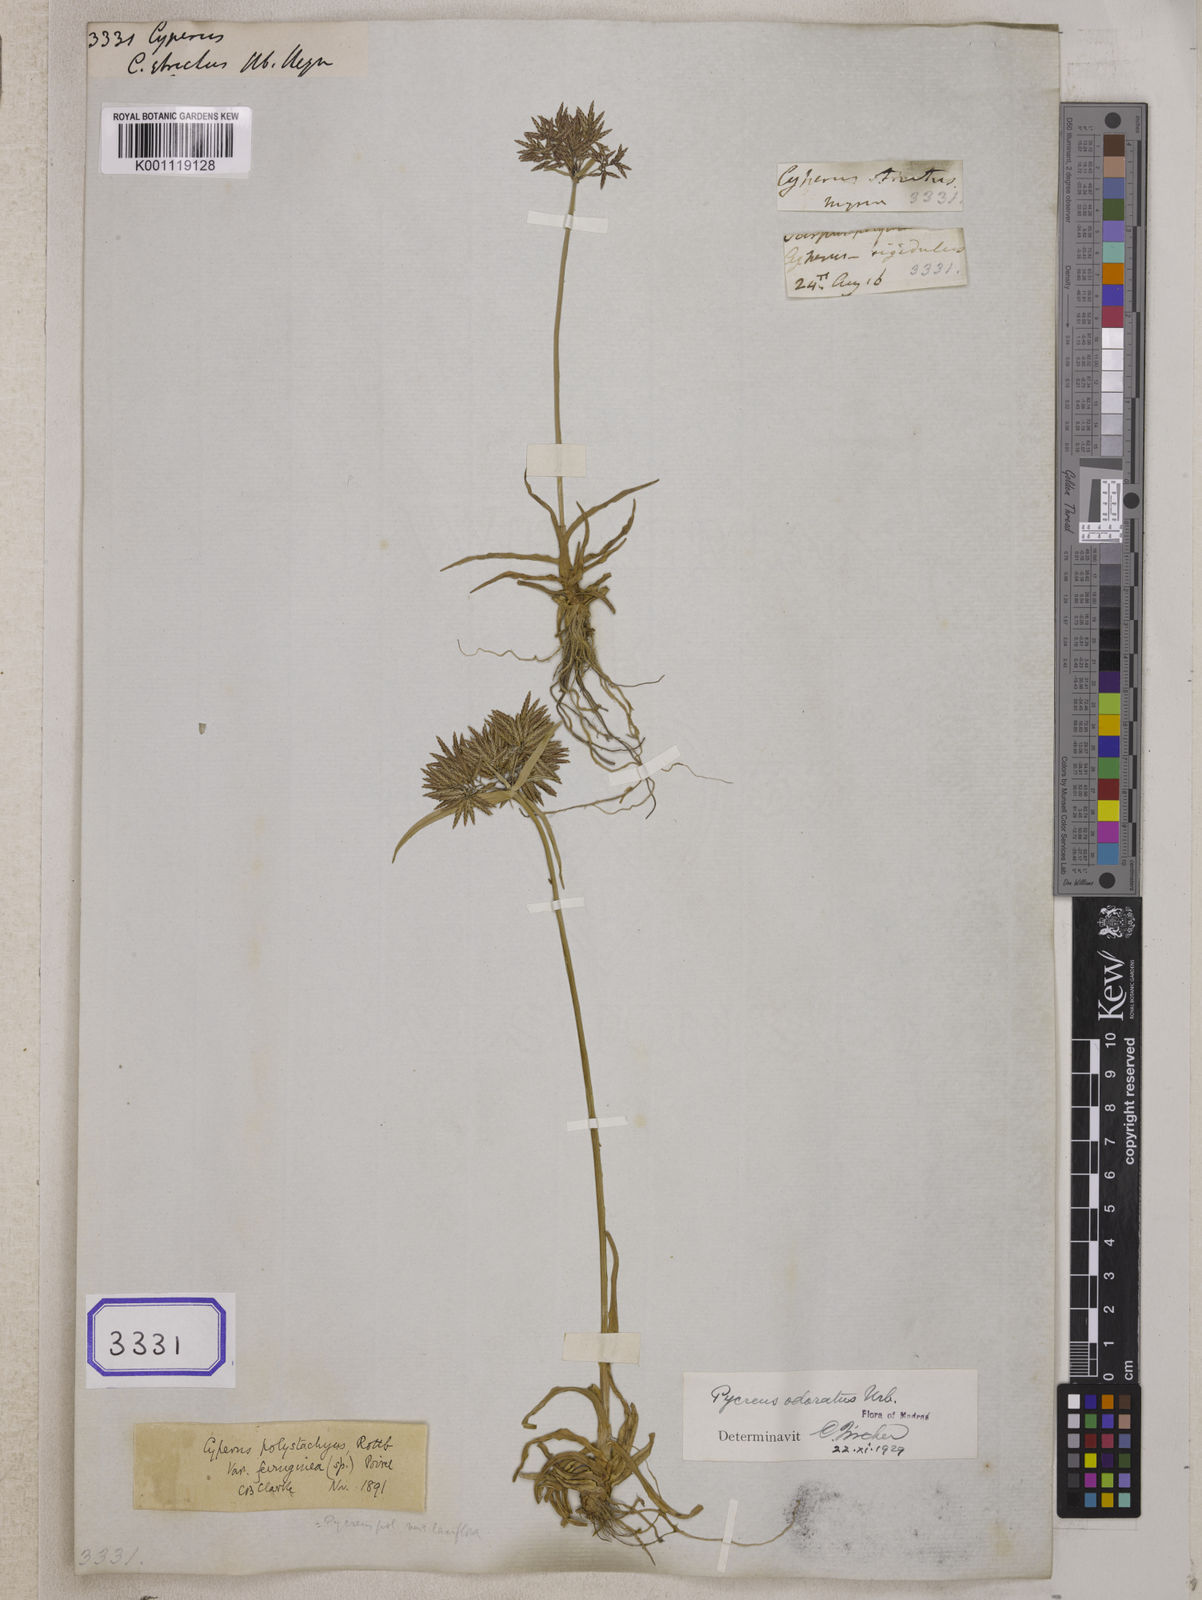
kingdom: Plantae
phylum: Tracheophyta
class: Liliopsida
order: Poales
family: Cyperaceae
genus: Cyperus
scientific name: Cyperus
